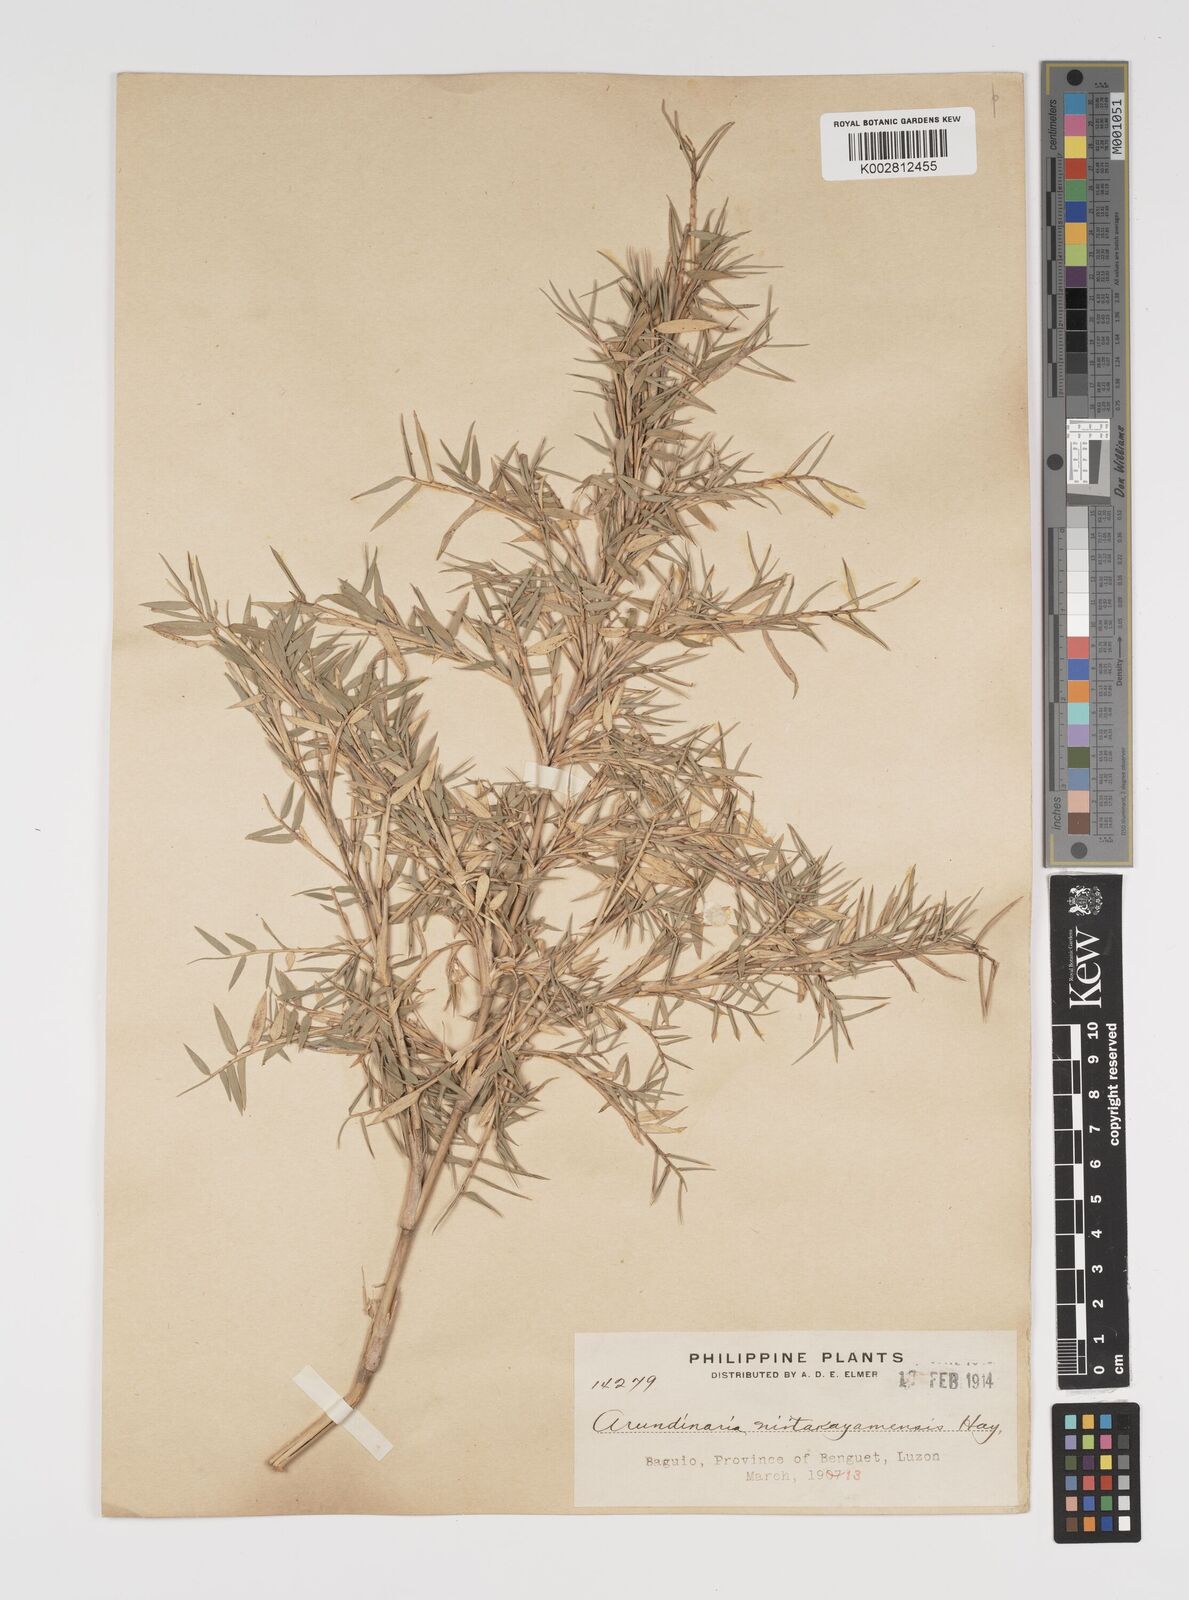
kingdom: Plantae
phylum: Tracheophyta
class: Liliopsida
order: Poales
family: Poaceae
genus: Yushania
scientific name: Yushania niitakayamensis
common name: Yushan cane
